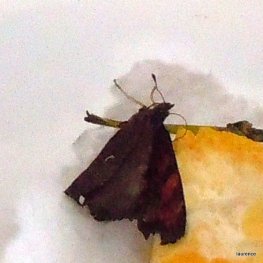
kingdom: Animalia
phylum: Arthropoda
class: Insecta
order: Lepidoptera
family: Nymphalidae
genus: Polygonia
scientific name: Polygonia satyrus
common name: Satyr Comma
